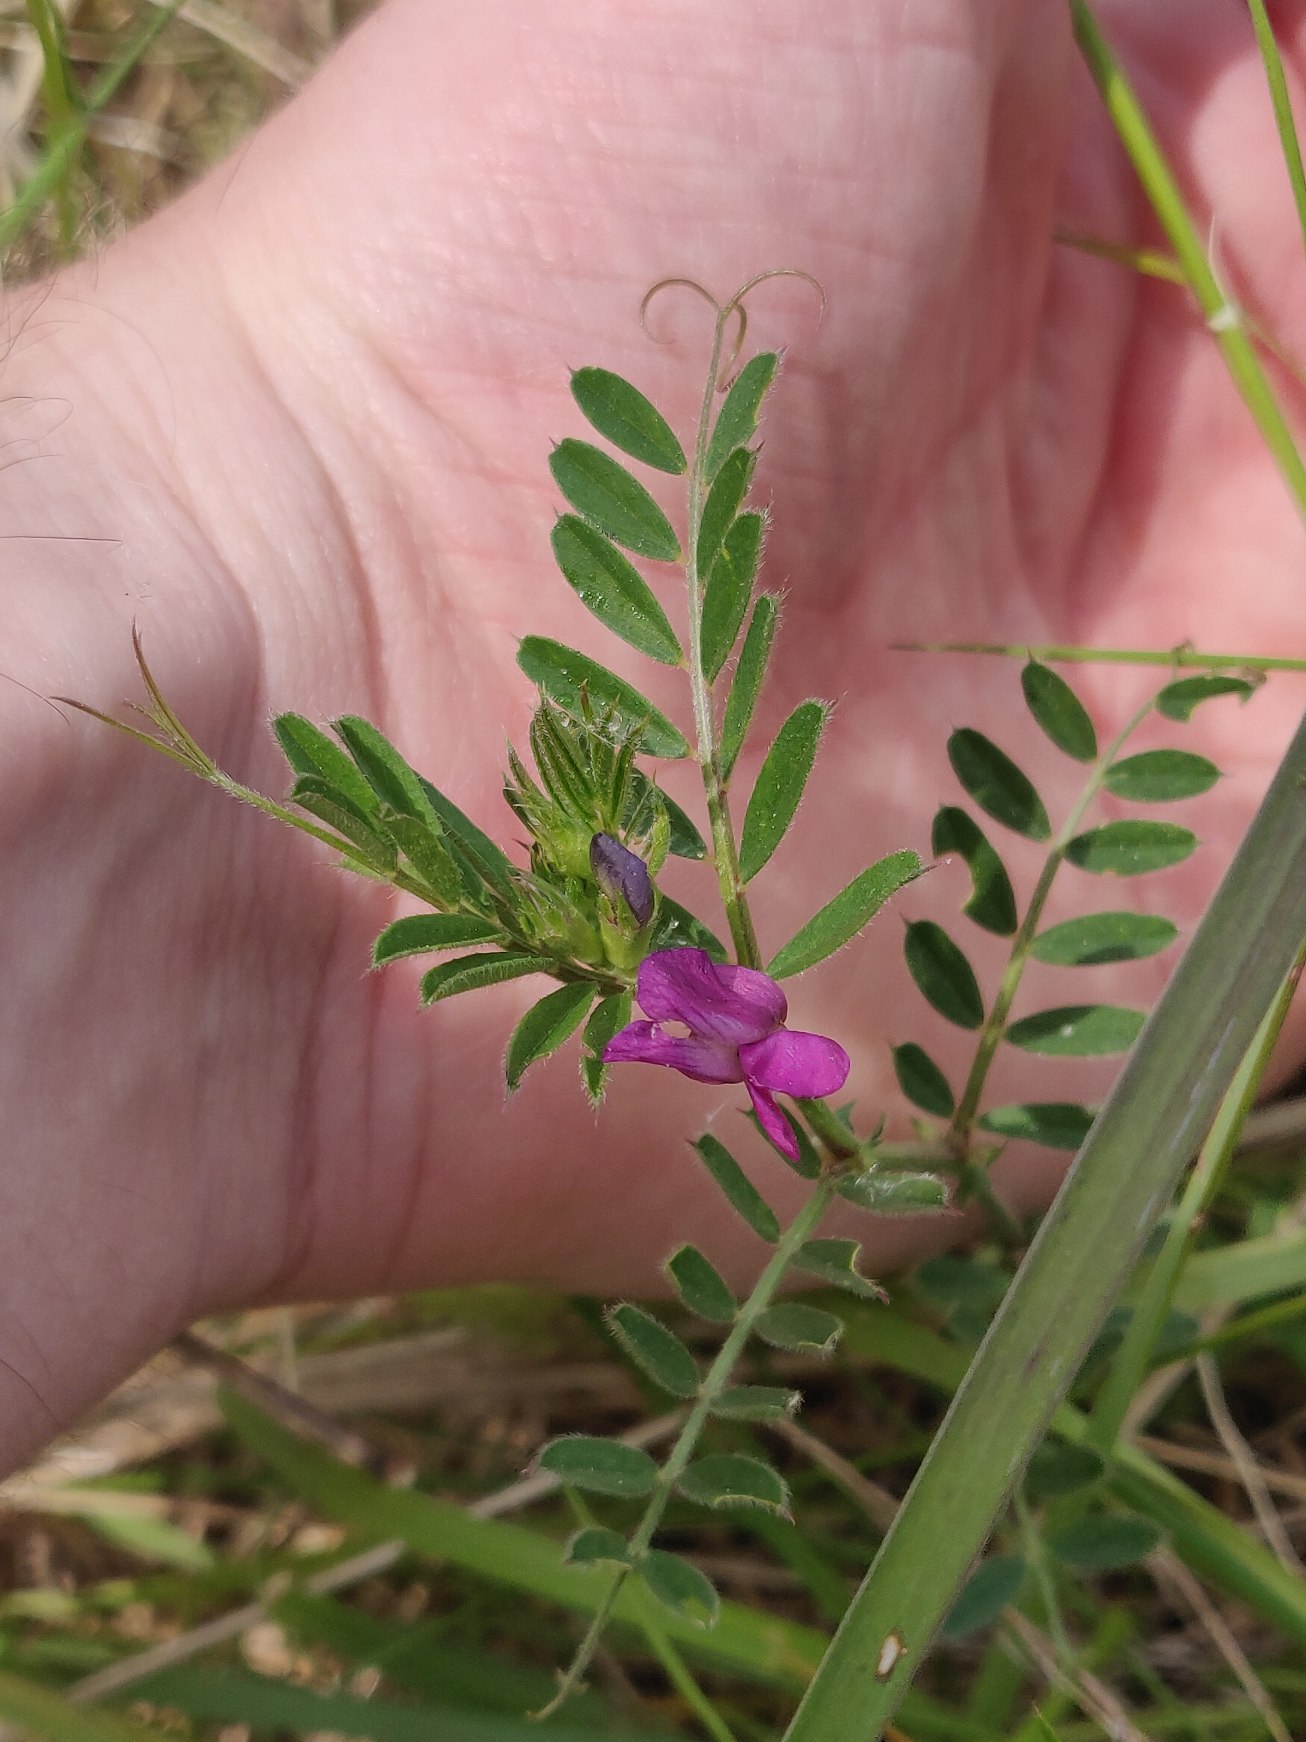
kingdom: Plantae
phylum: Tracheophyta
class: Magnoliopsida
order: Fabales
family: Fabaceae
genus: Vicia
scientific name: Vicia sativa
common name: Smalbladet vikke
